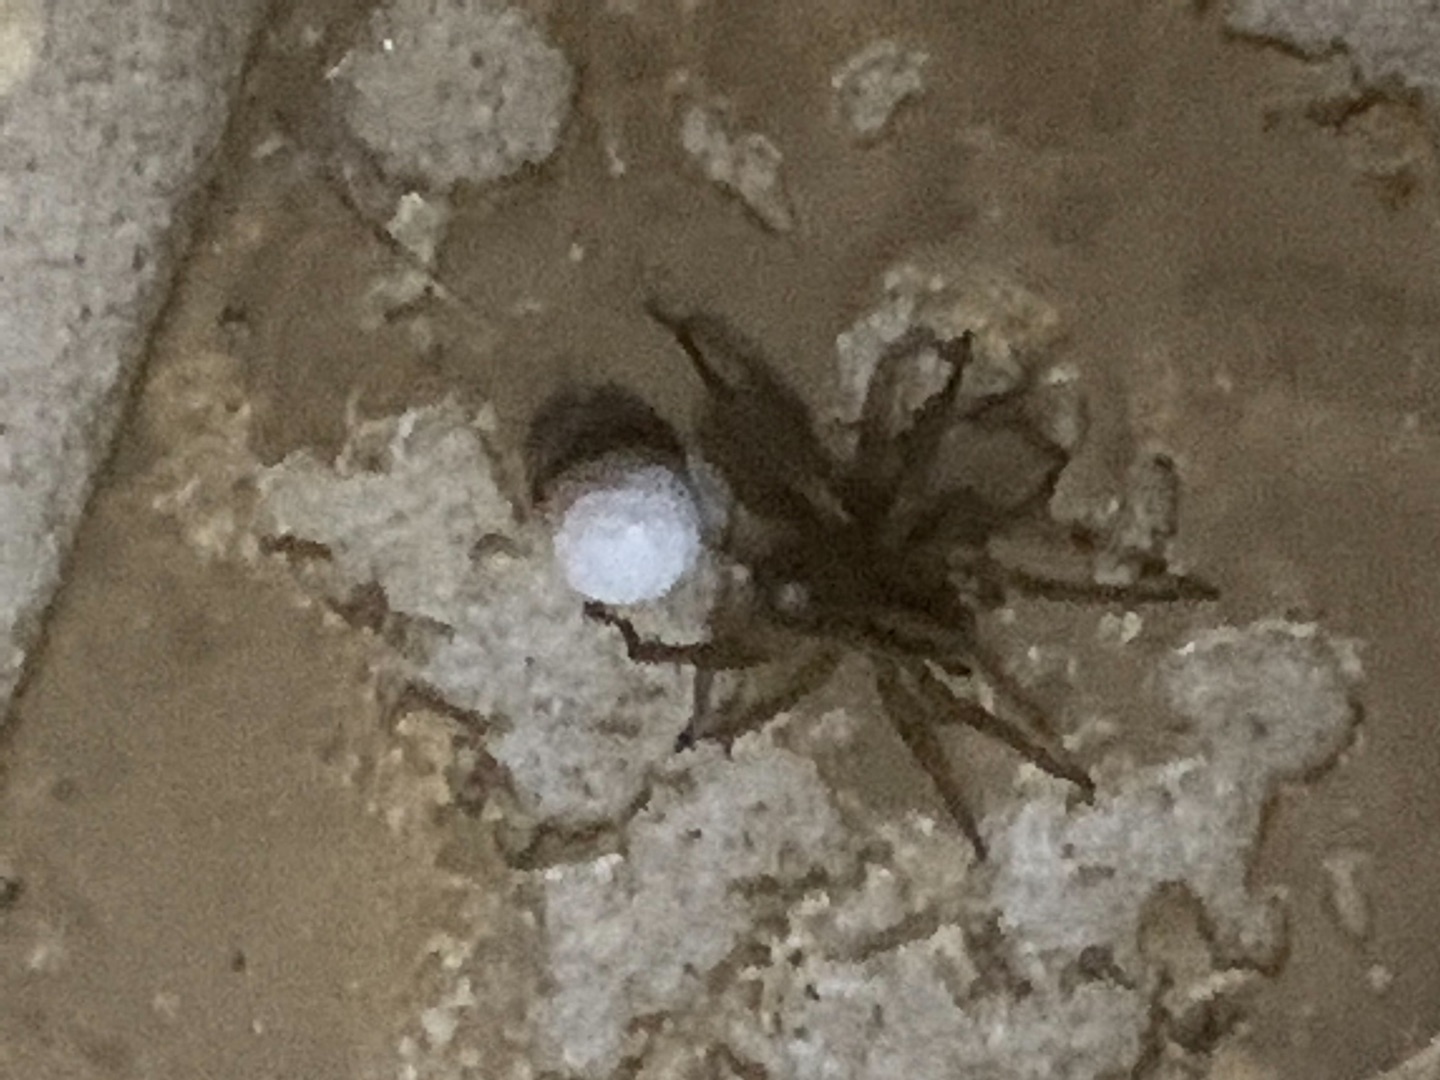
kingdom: Animalia
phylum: Arthropoda
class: Arachnida
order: Araneae
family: Lycosidae
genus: Trochosa
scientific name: Trochosa
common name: Bjørneedderkopslægten
